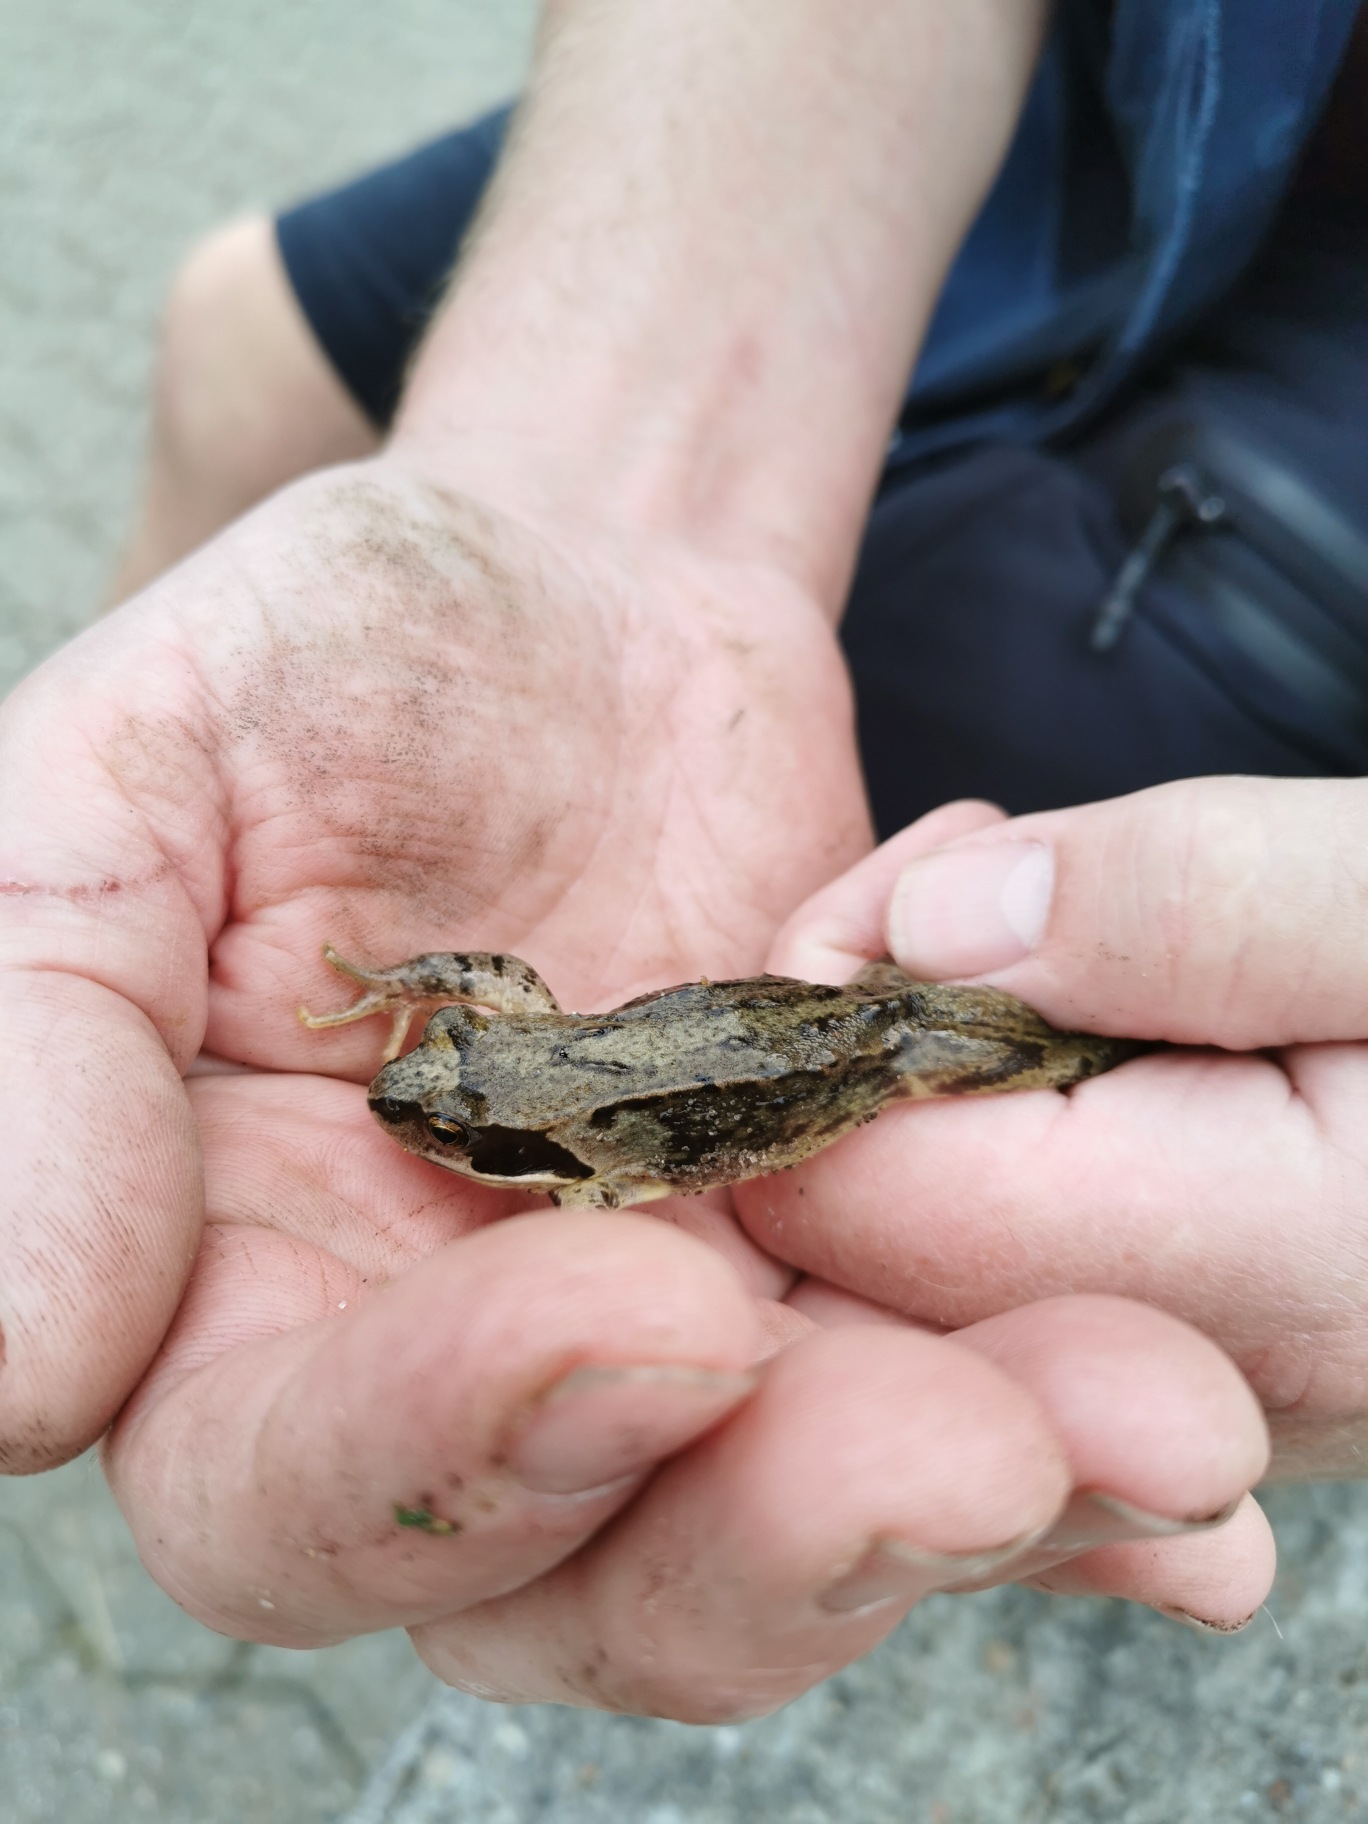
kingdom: Animalia
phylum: Chordata
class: Amphibia
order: Anura
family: Ranidae
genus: Rana
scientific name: Rana temporaria
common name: Butsnudet frø
